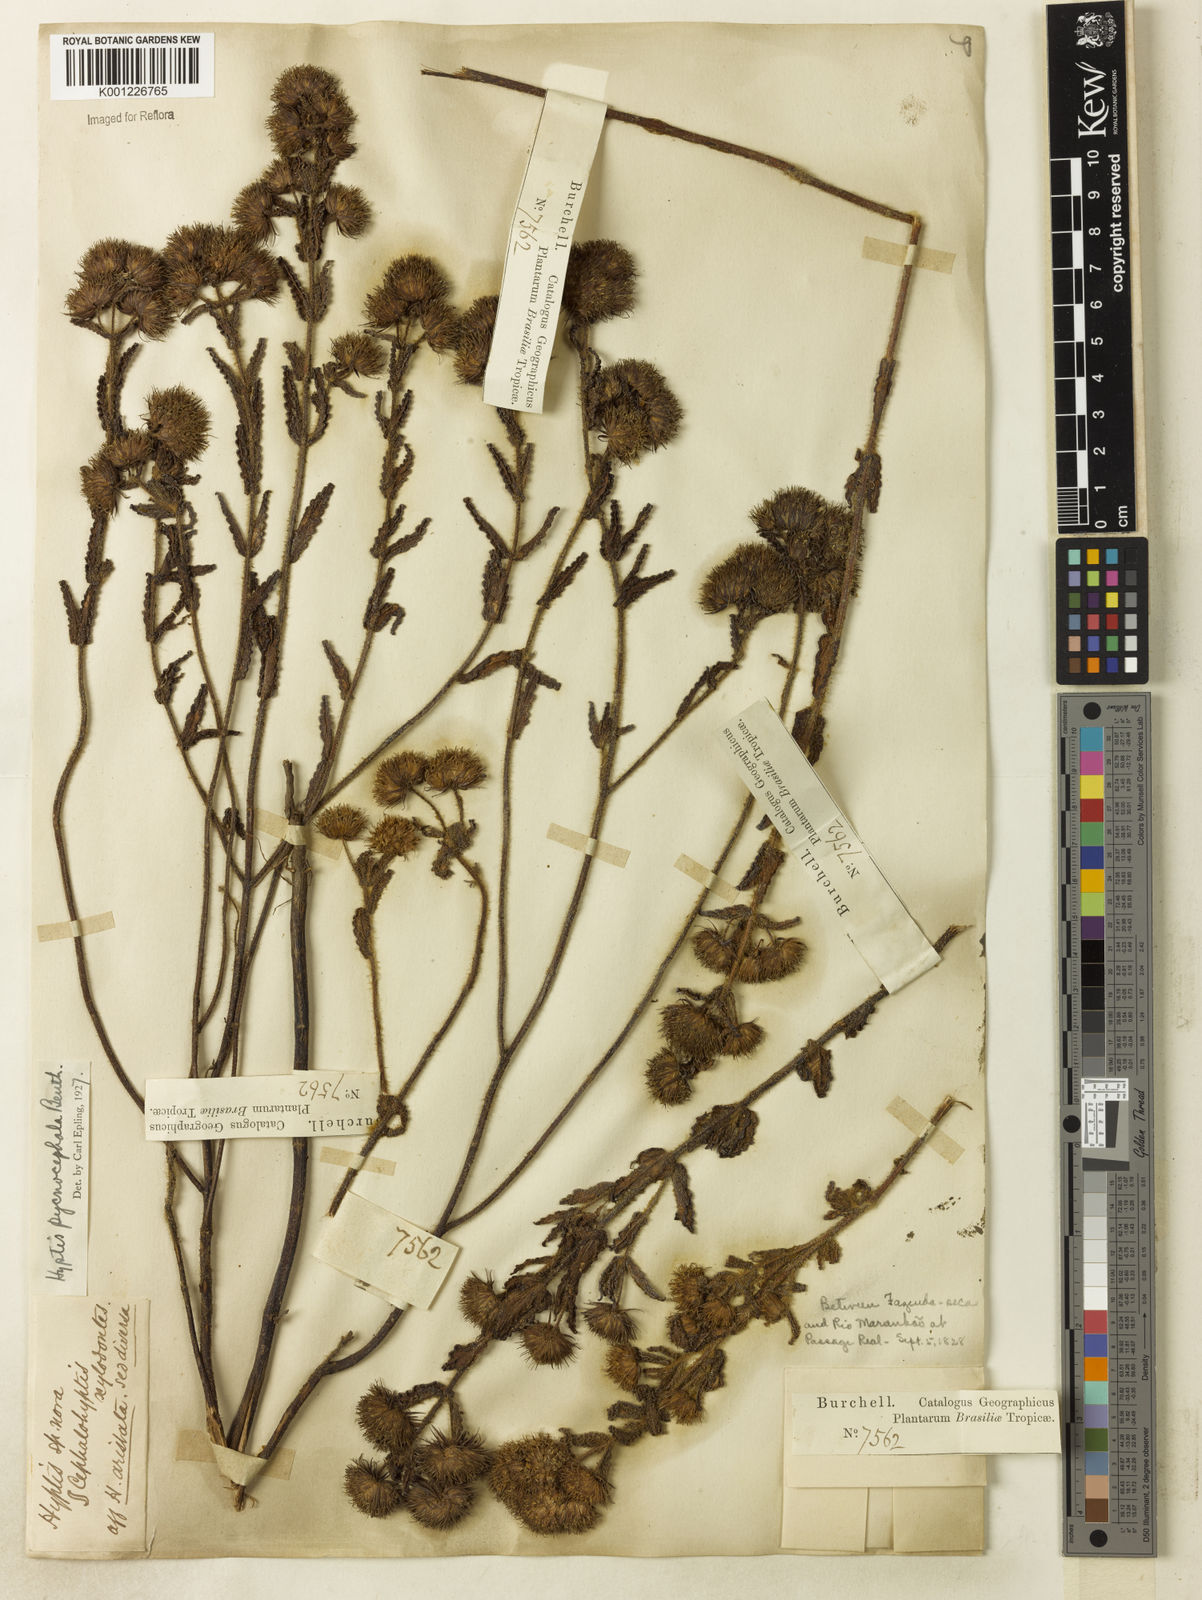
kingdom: Plantae
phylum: Tracheophyta
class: Magnoliopsida
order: Lamiales
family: Lamiaceae
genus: Hyptis
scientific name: Hyptis pycnocephala
